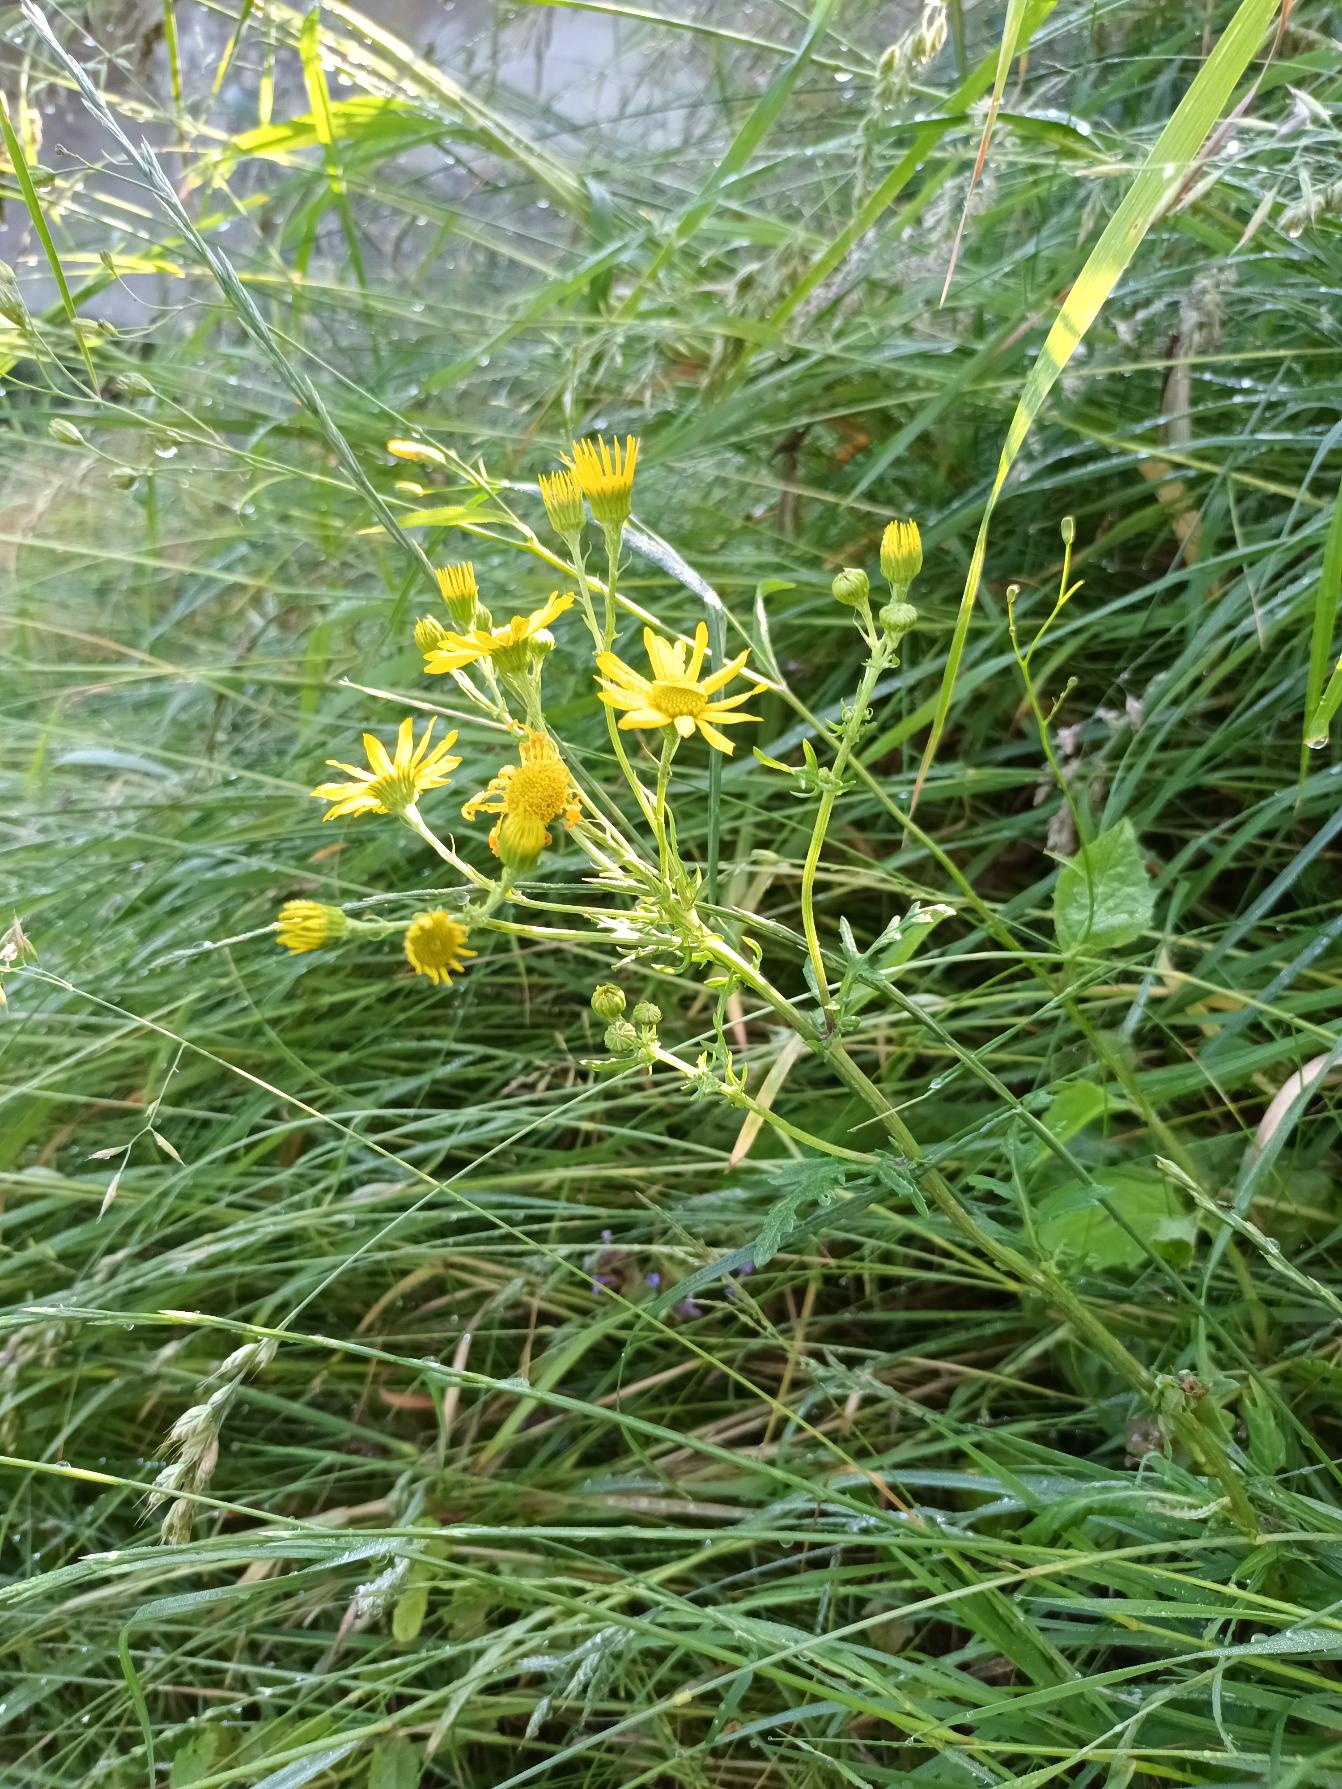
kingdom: Plantae
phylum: Tracheophyta
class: Magnoliopsida
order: Asterales
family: Asteraceae
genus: Jacobaea
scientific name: Jacobaea aquatica
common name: Vand-brandbæger
